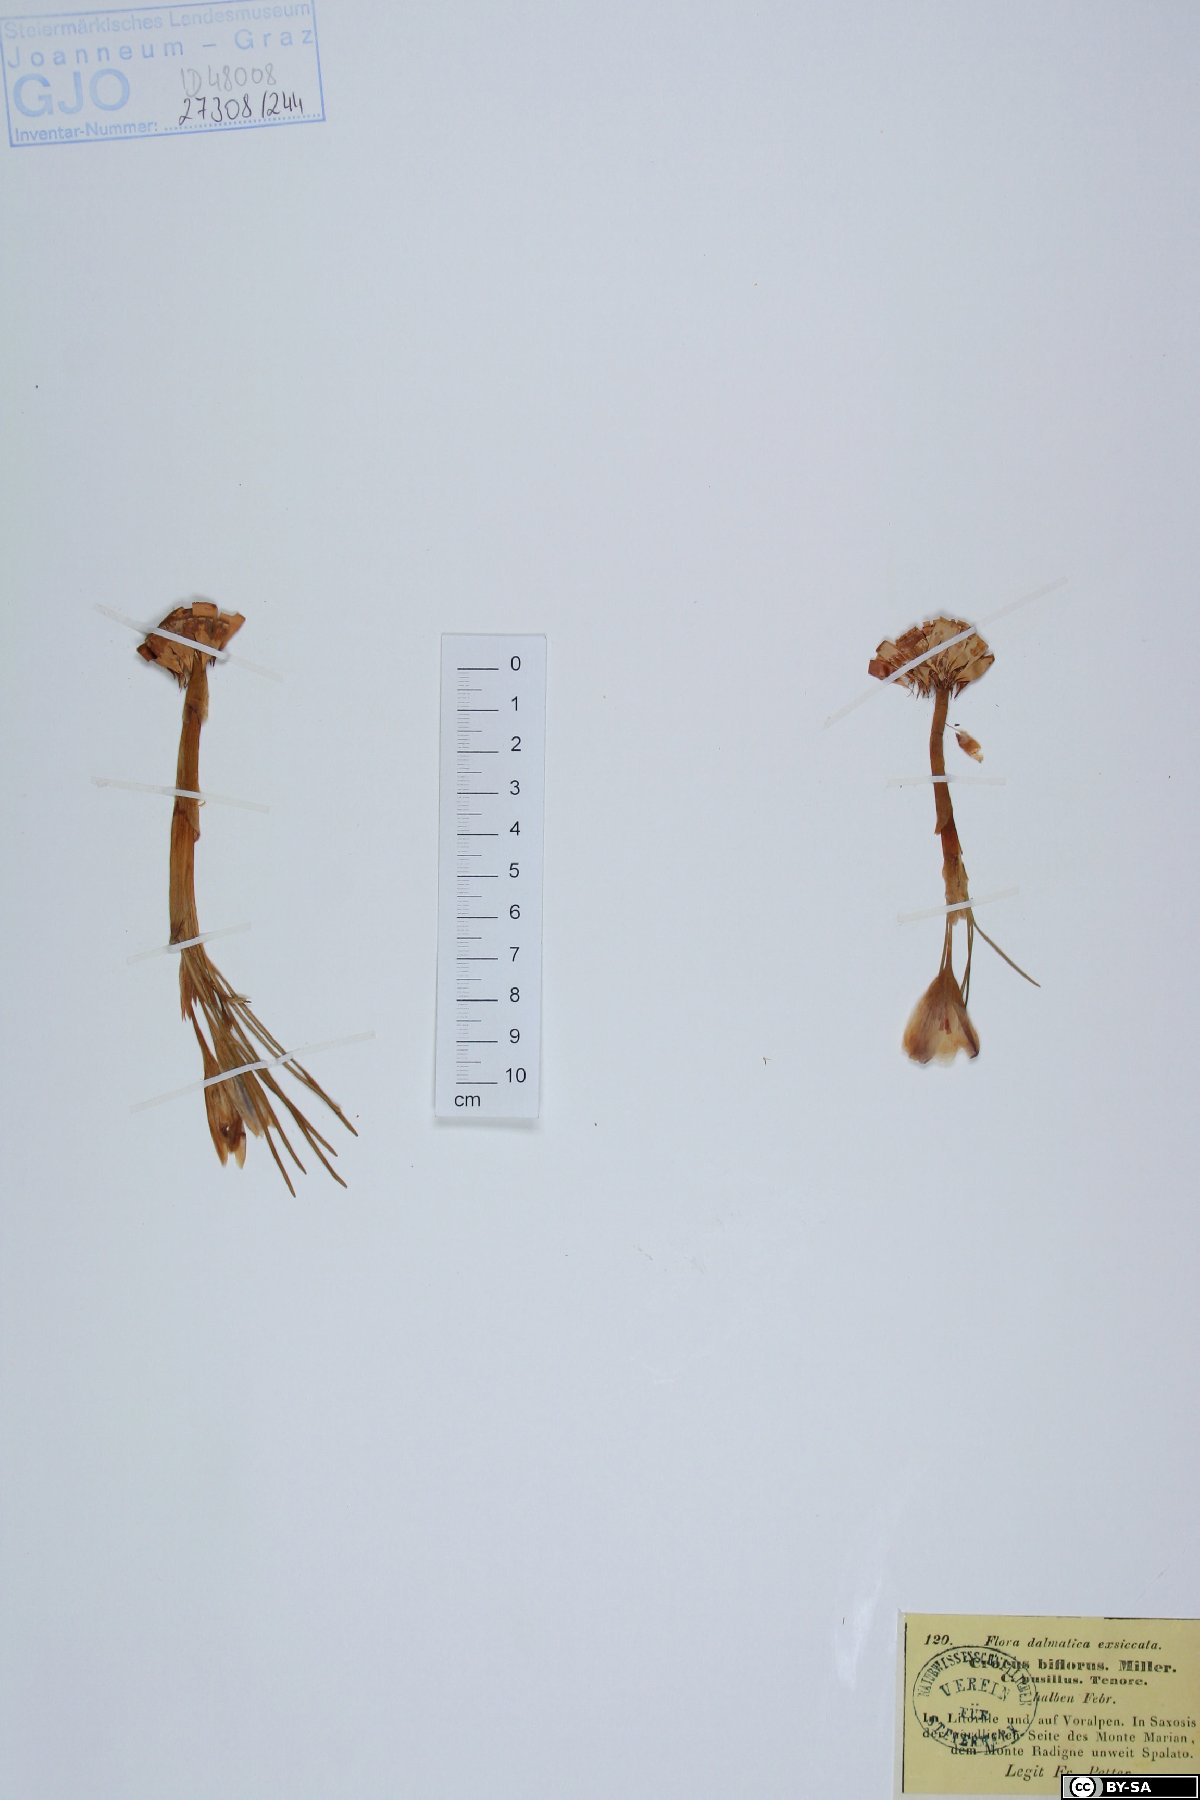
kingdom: Plantae
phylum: Tracheophyta
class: Liliopsida
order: Asparagales
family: Iridaceae
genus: Crocus
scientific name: Crocus biflorus
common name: Silvery crocus
